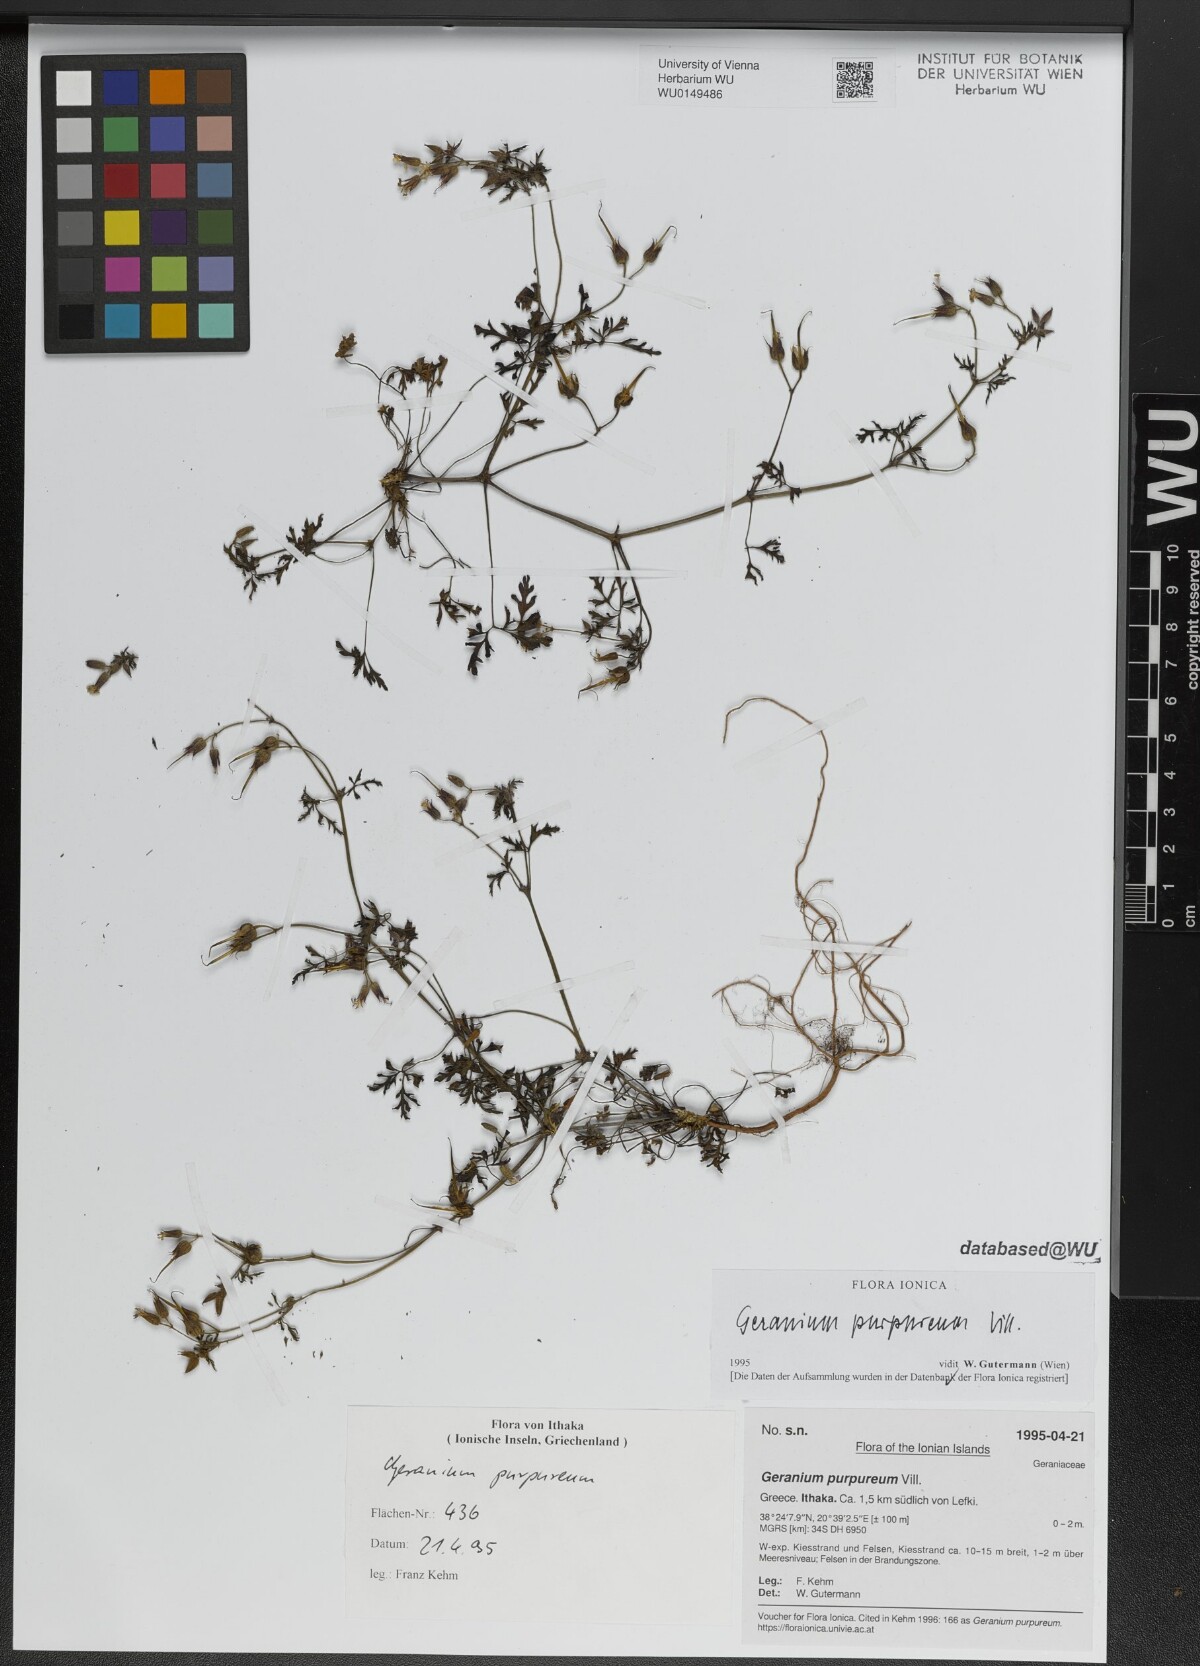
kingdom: Plantae
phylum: Tracheophyta
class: Magnoliopsida
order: Geraniales
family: Geraniaceae
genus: Geranium
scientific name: Geranium purpureum
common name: Little-robin
